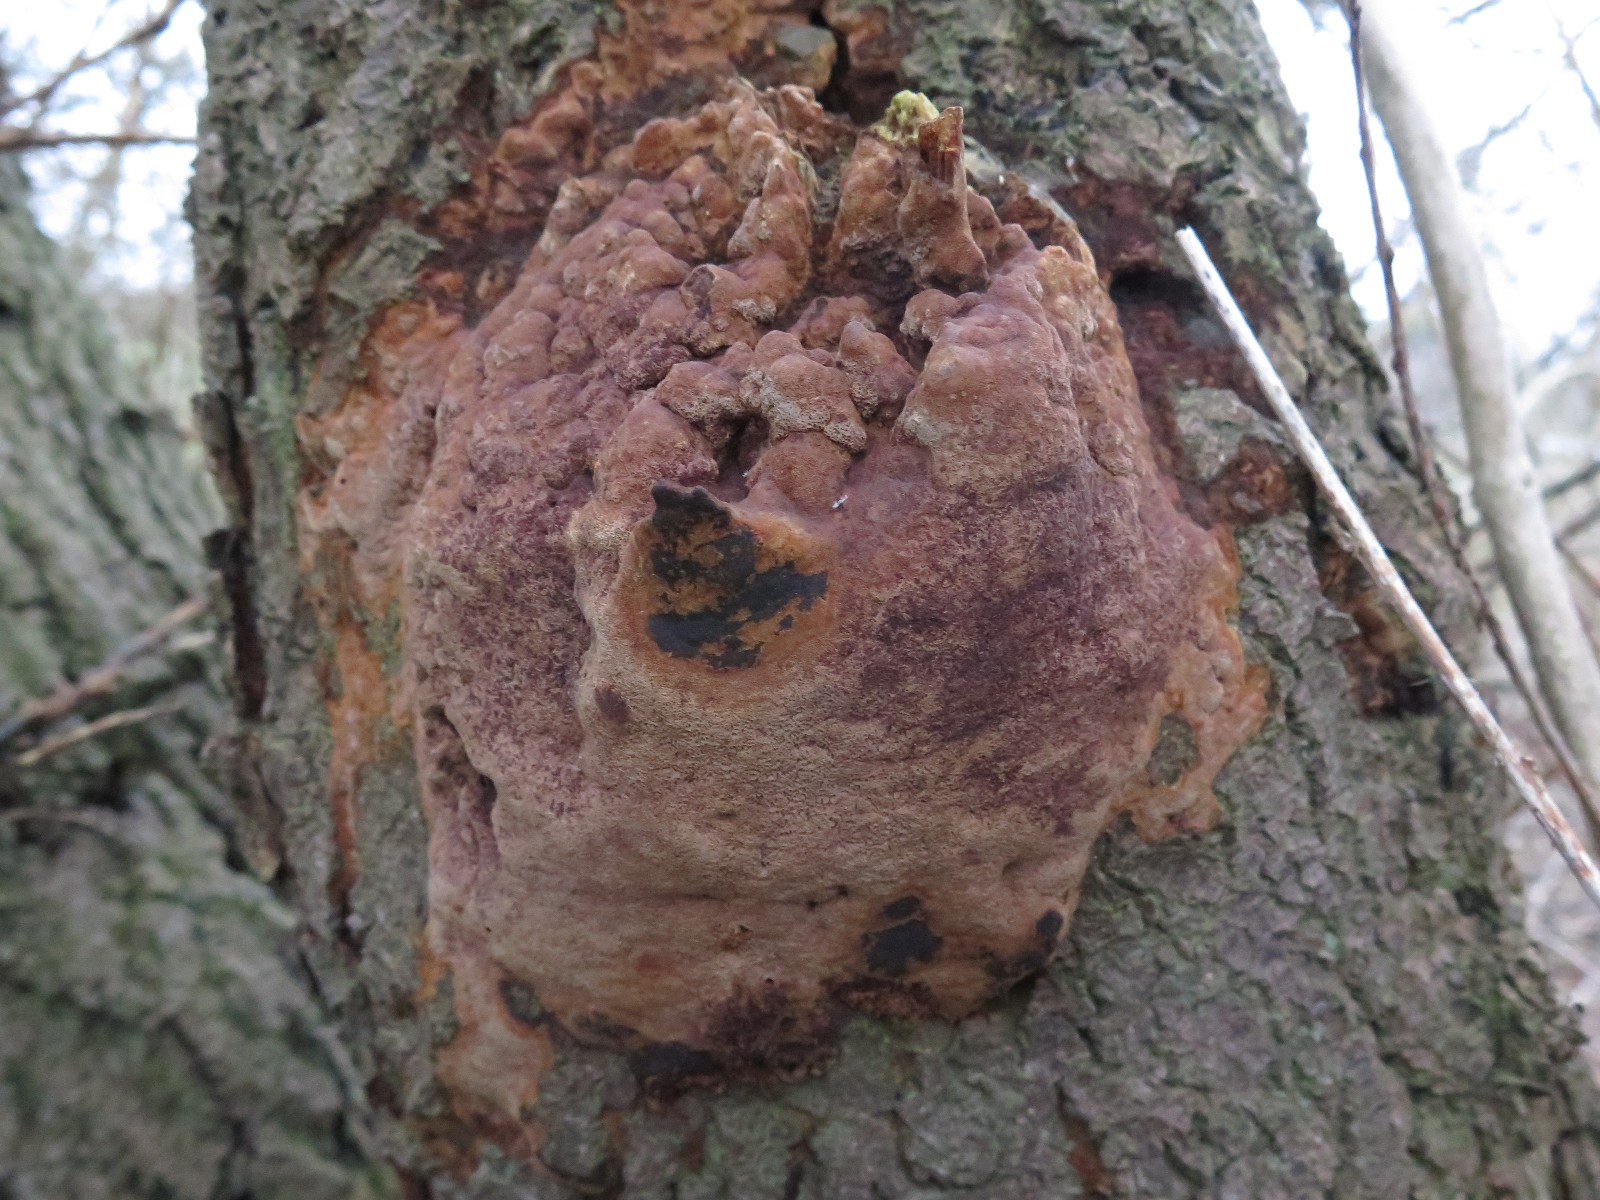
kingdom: Fungi
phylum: Basidiomycota
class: Agaricomycetes
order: Hymenochaetales
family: Hymenochaetaceae
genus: Fuscoporia
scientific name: Fuscoporia ferruginosa
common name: rustbrun ildporesvamp
